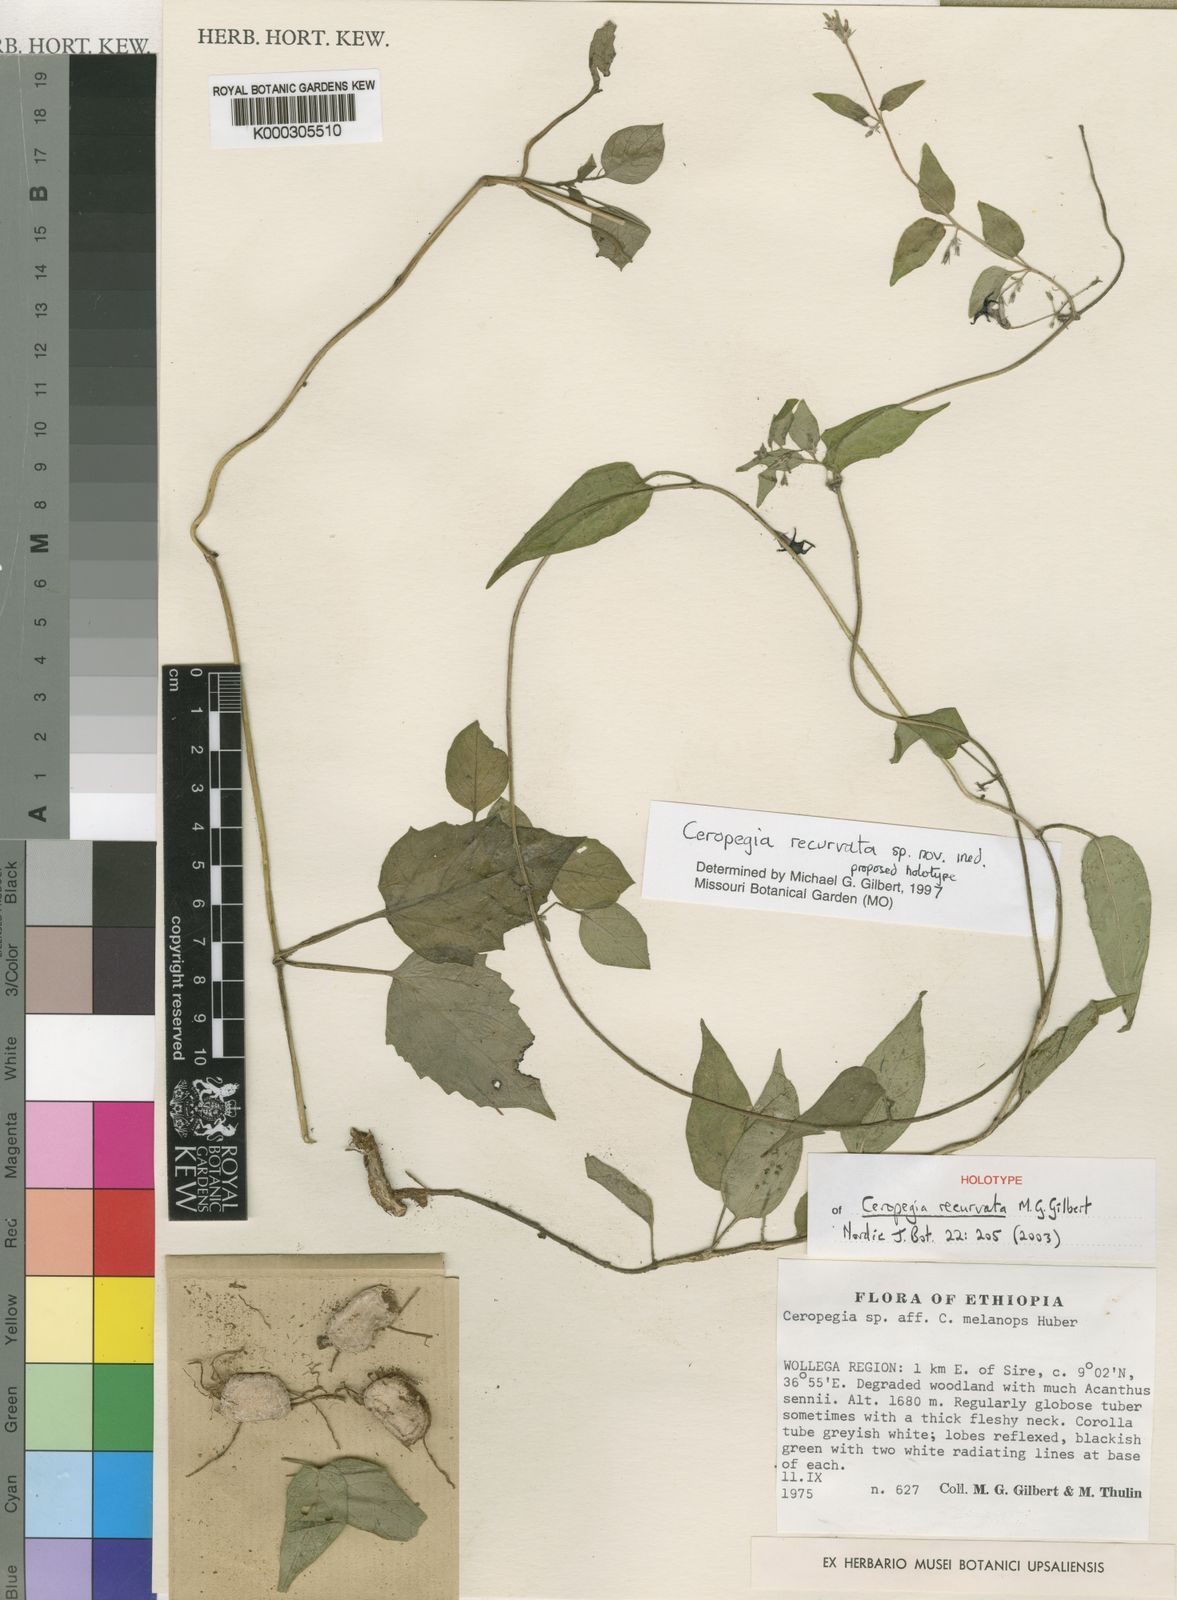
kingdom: Plantae
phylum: Tracheophyta
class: Magnoliopsida
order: Gentianales
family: Apocynaceae
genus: Ceropegia
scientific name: Ceropegia nigra
